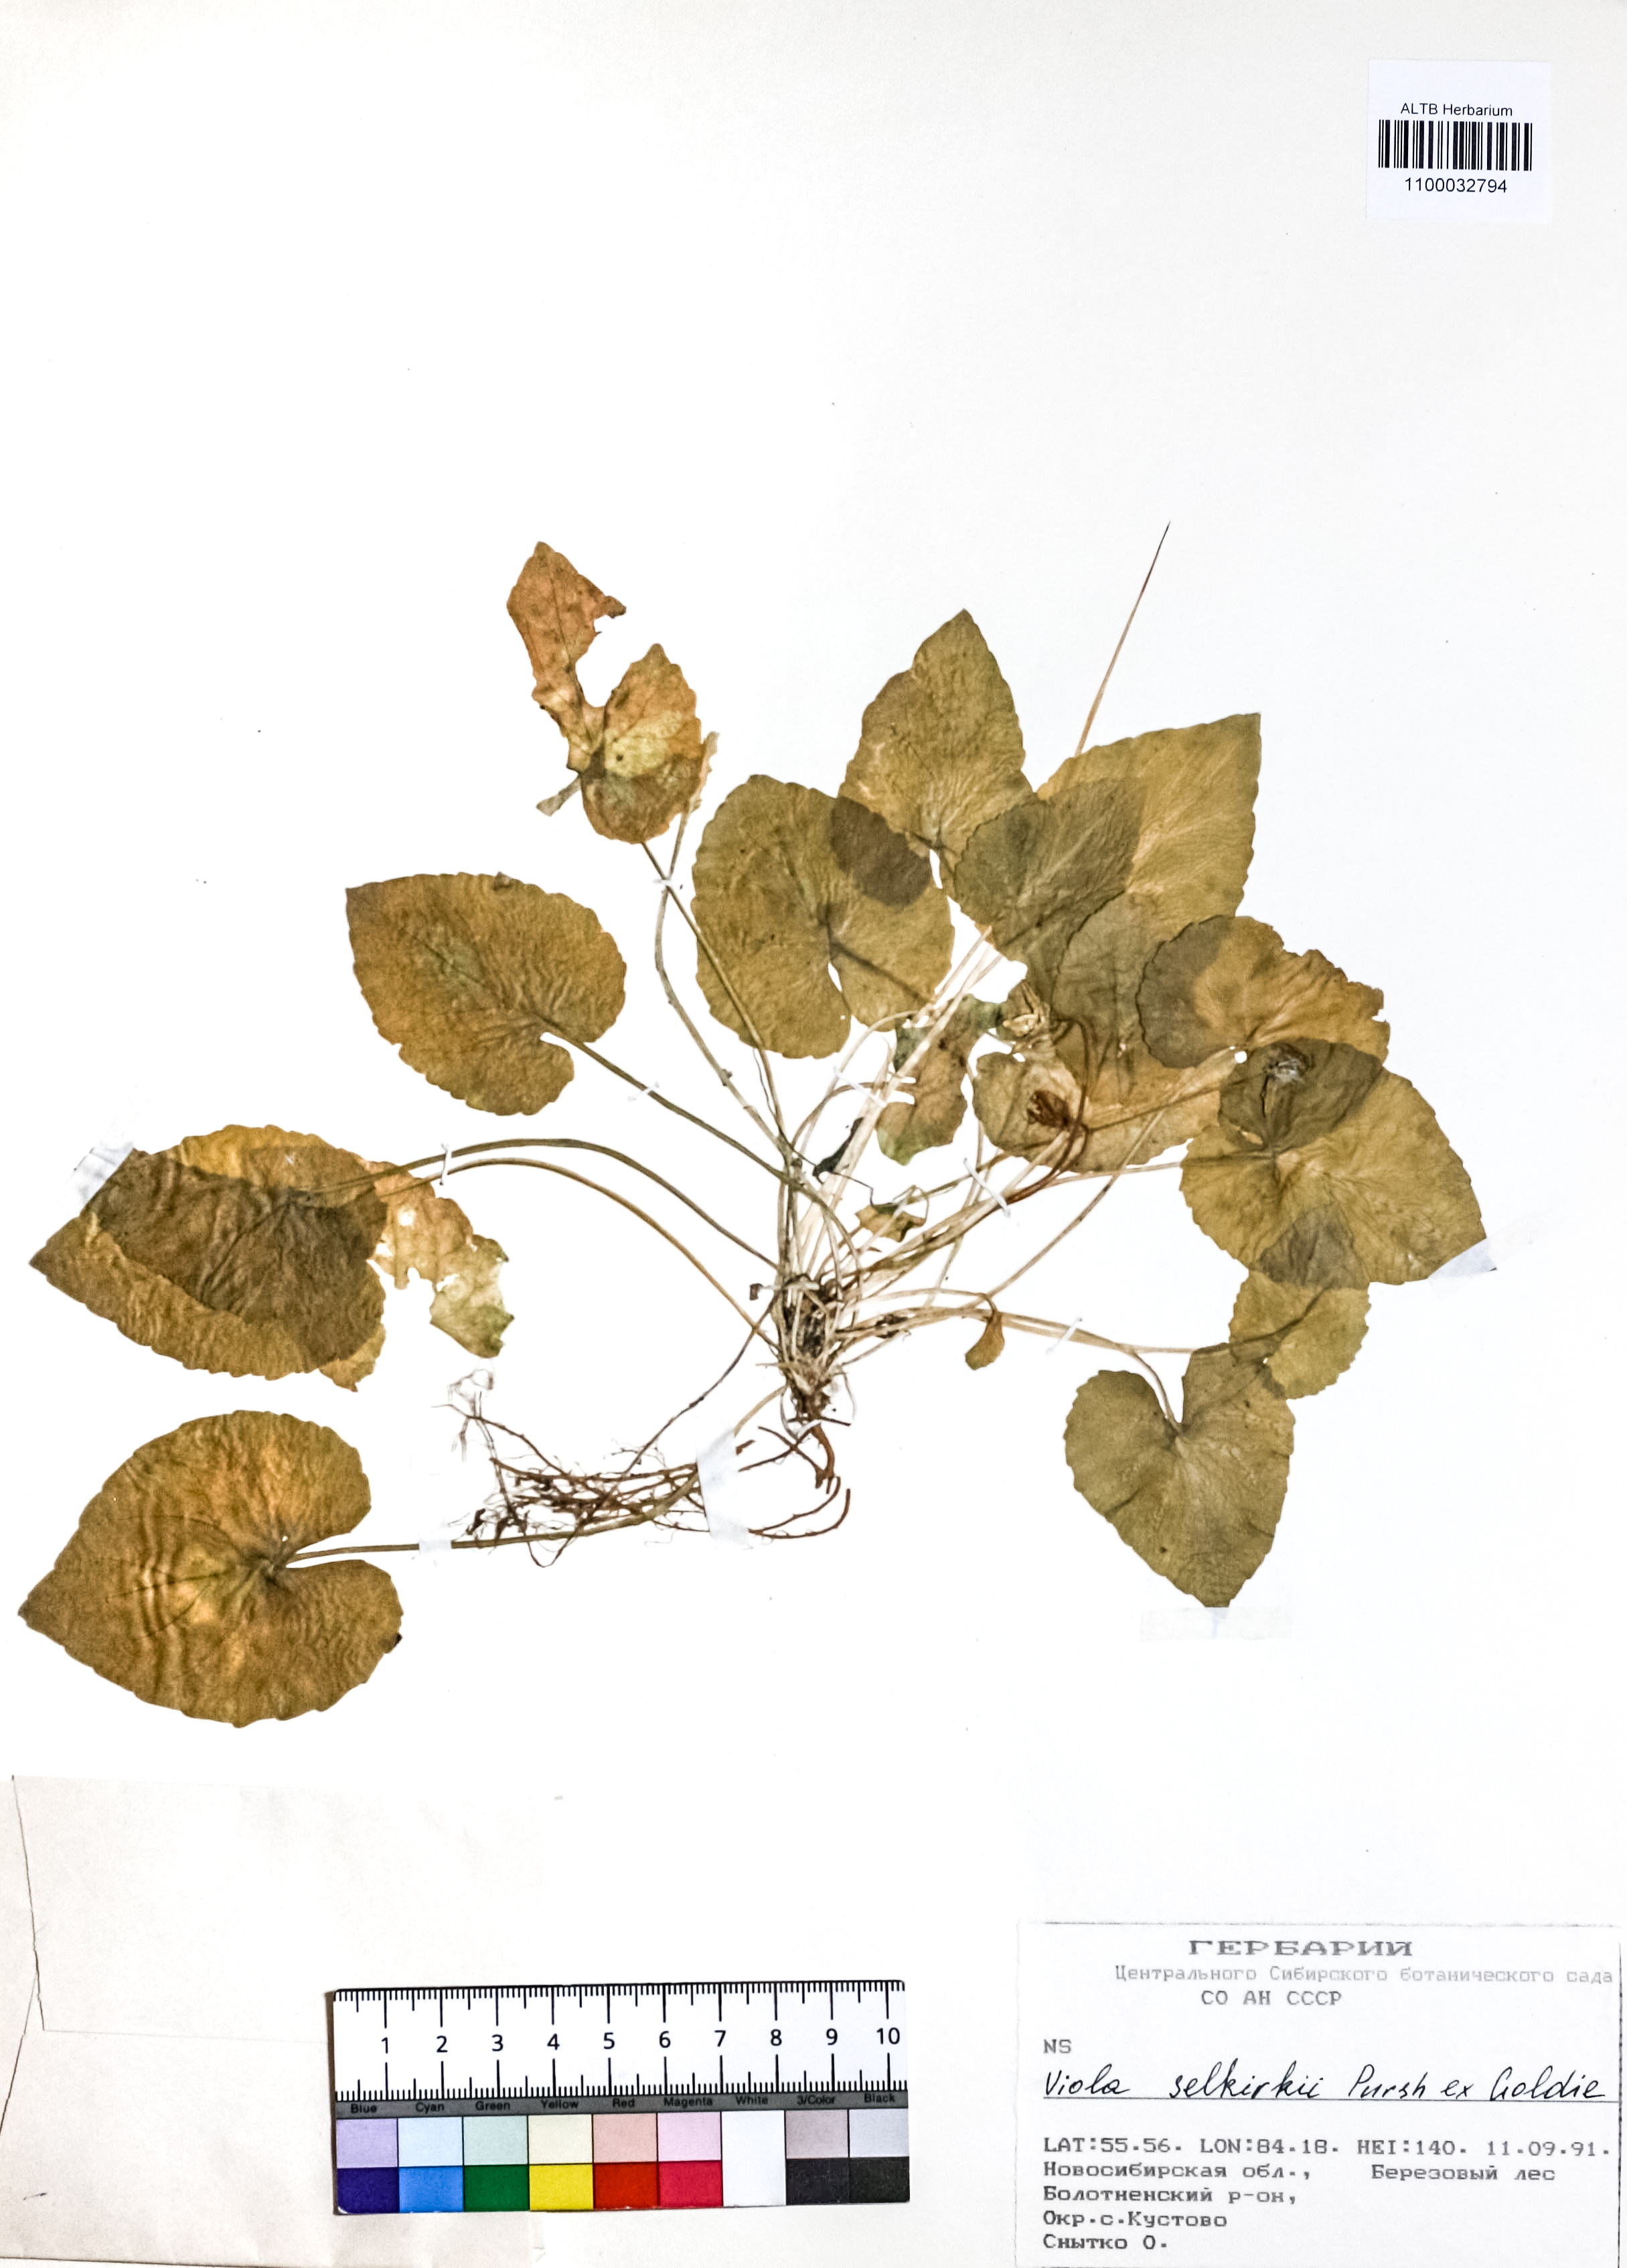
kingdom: Plantae
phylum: Tracheophyta
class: Magnoliopsida
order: Malpighiales
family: Violaceae
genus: Viola
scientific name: Viola selkirkii
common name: Selkirk's violet
